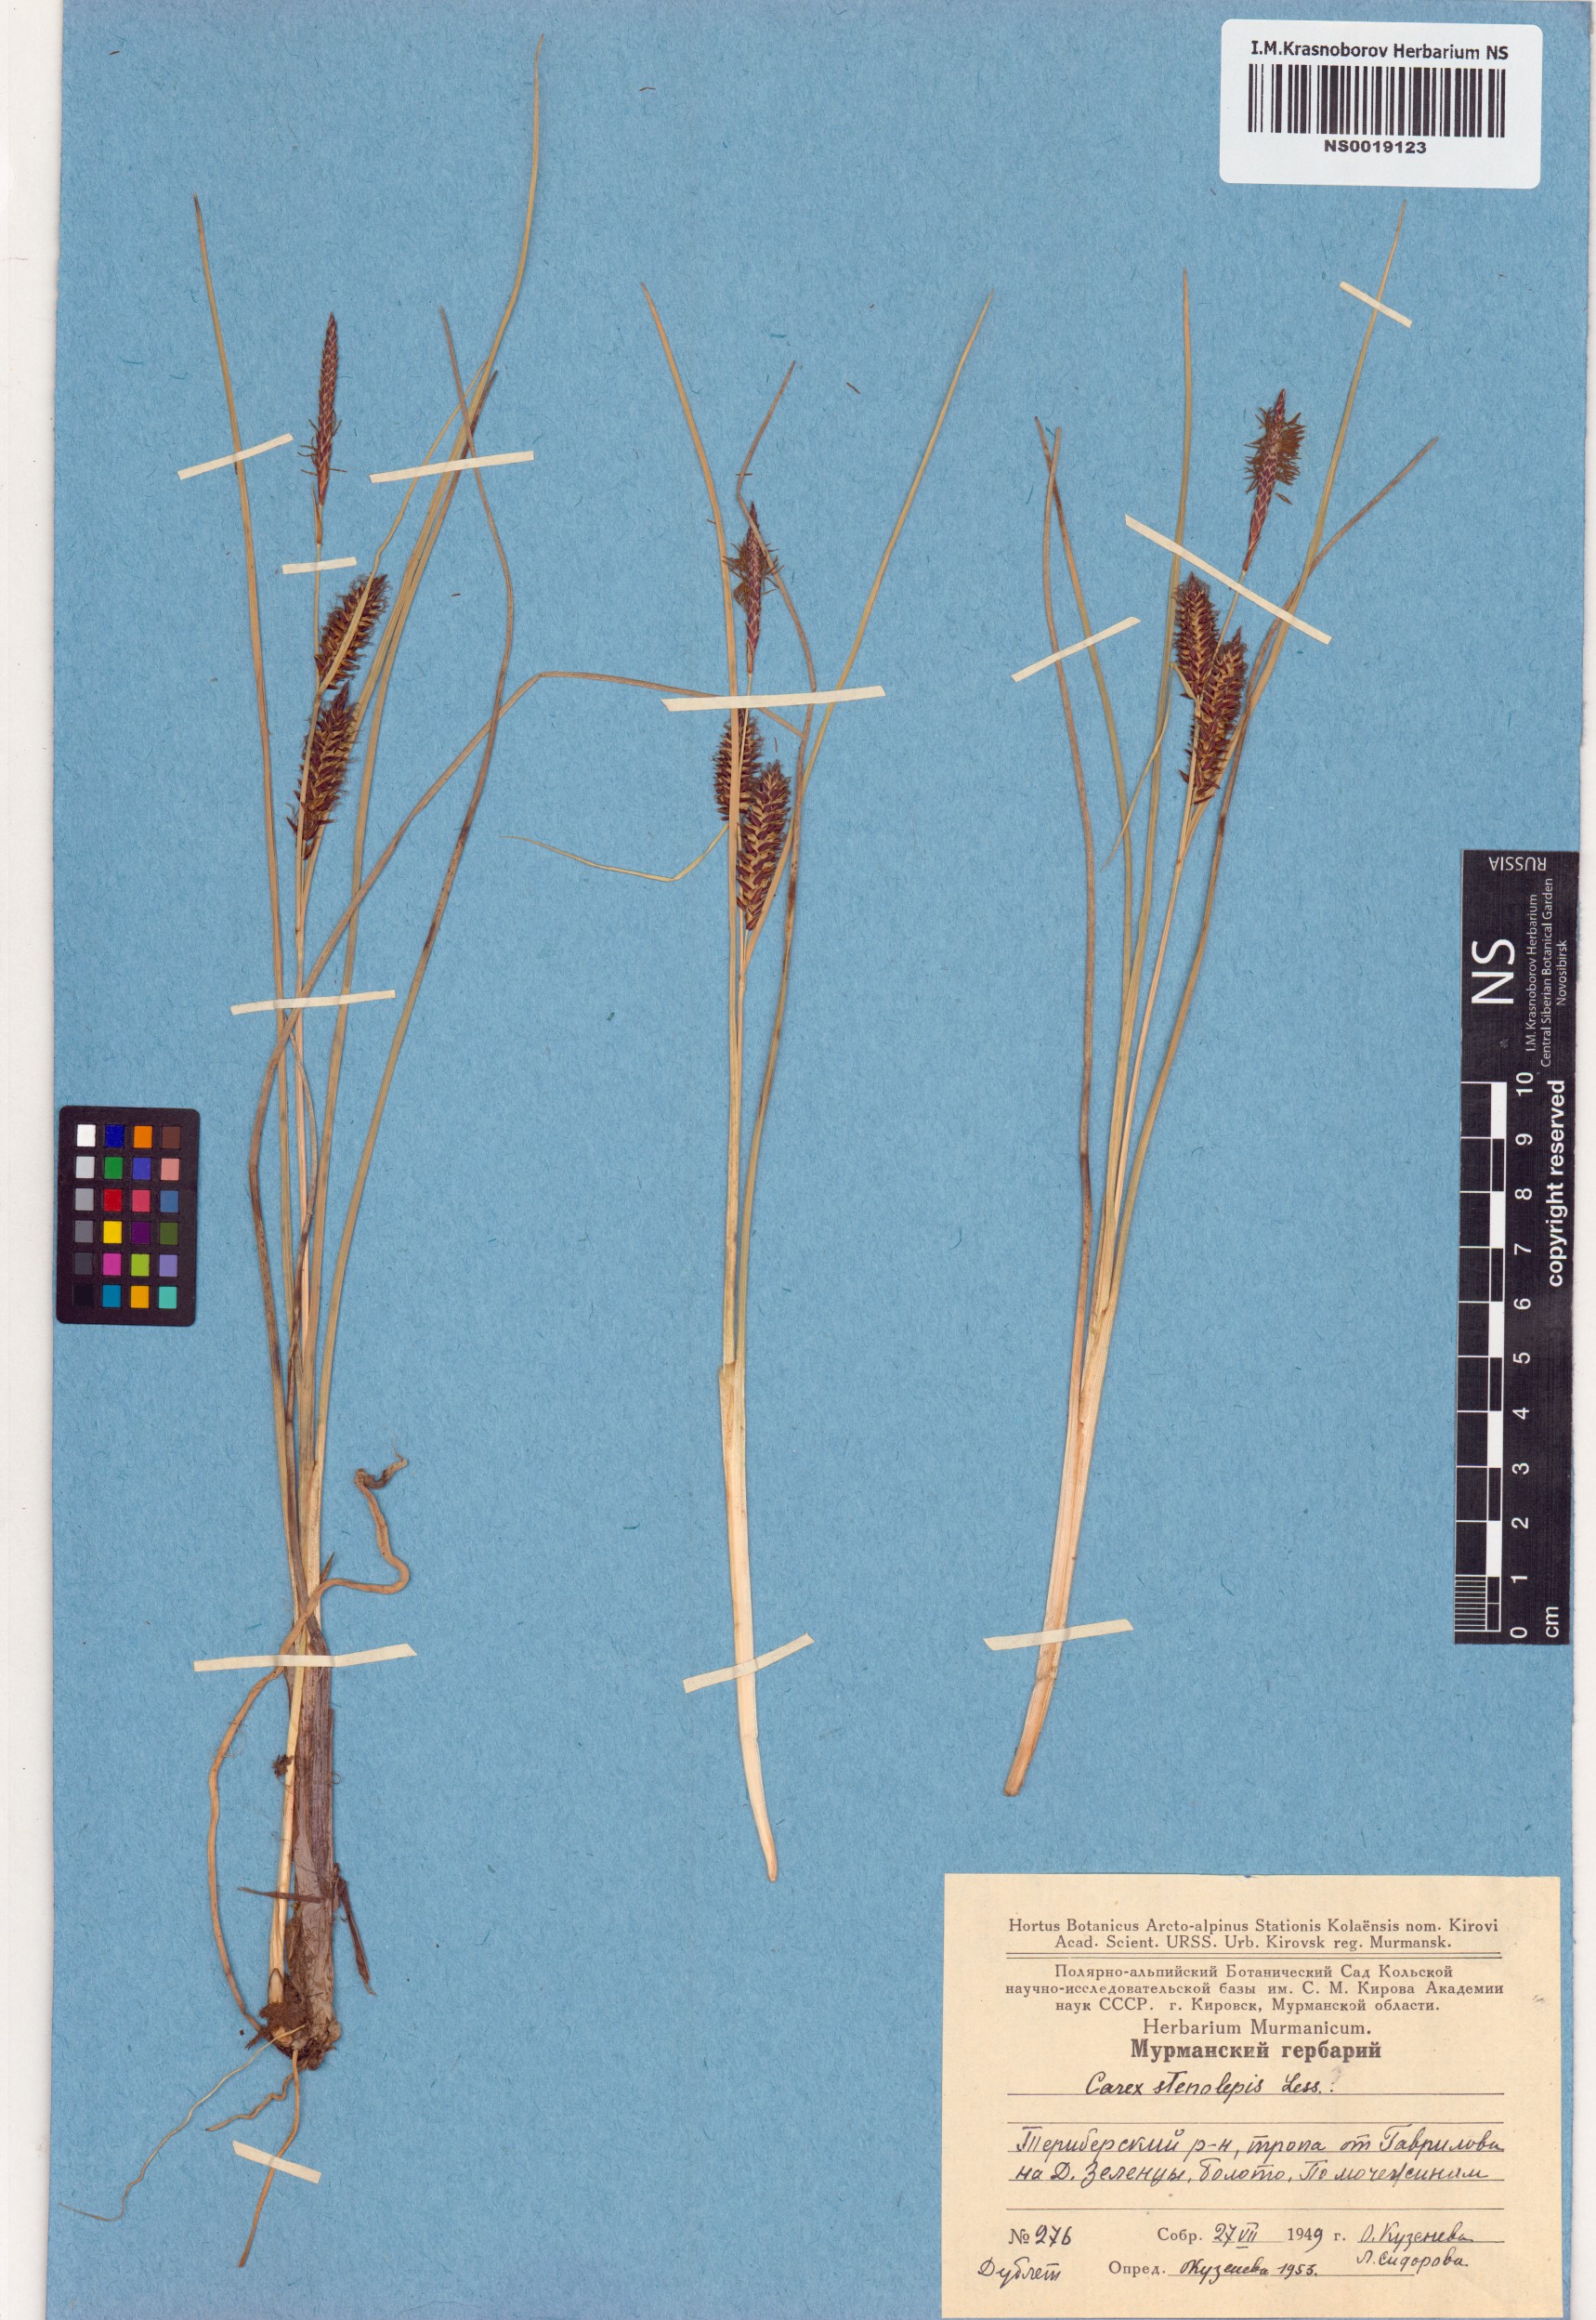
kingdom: Plantae
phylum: Tracheophyta
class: Liliopsida
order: Poales
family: Cyperaceae
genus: Carex
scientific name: Carex rostrata
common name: Bottle sedge
